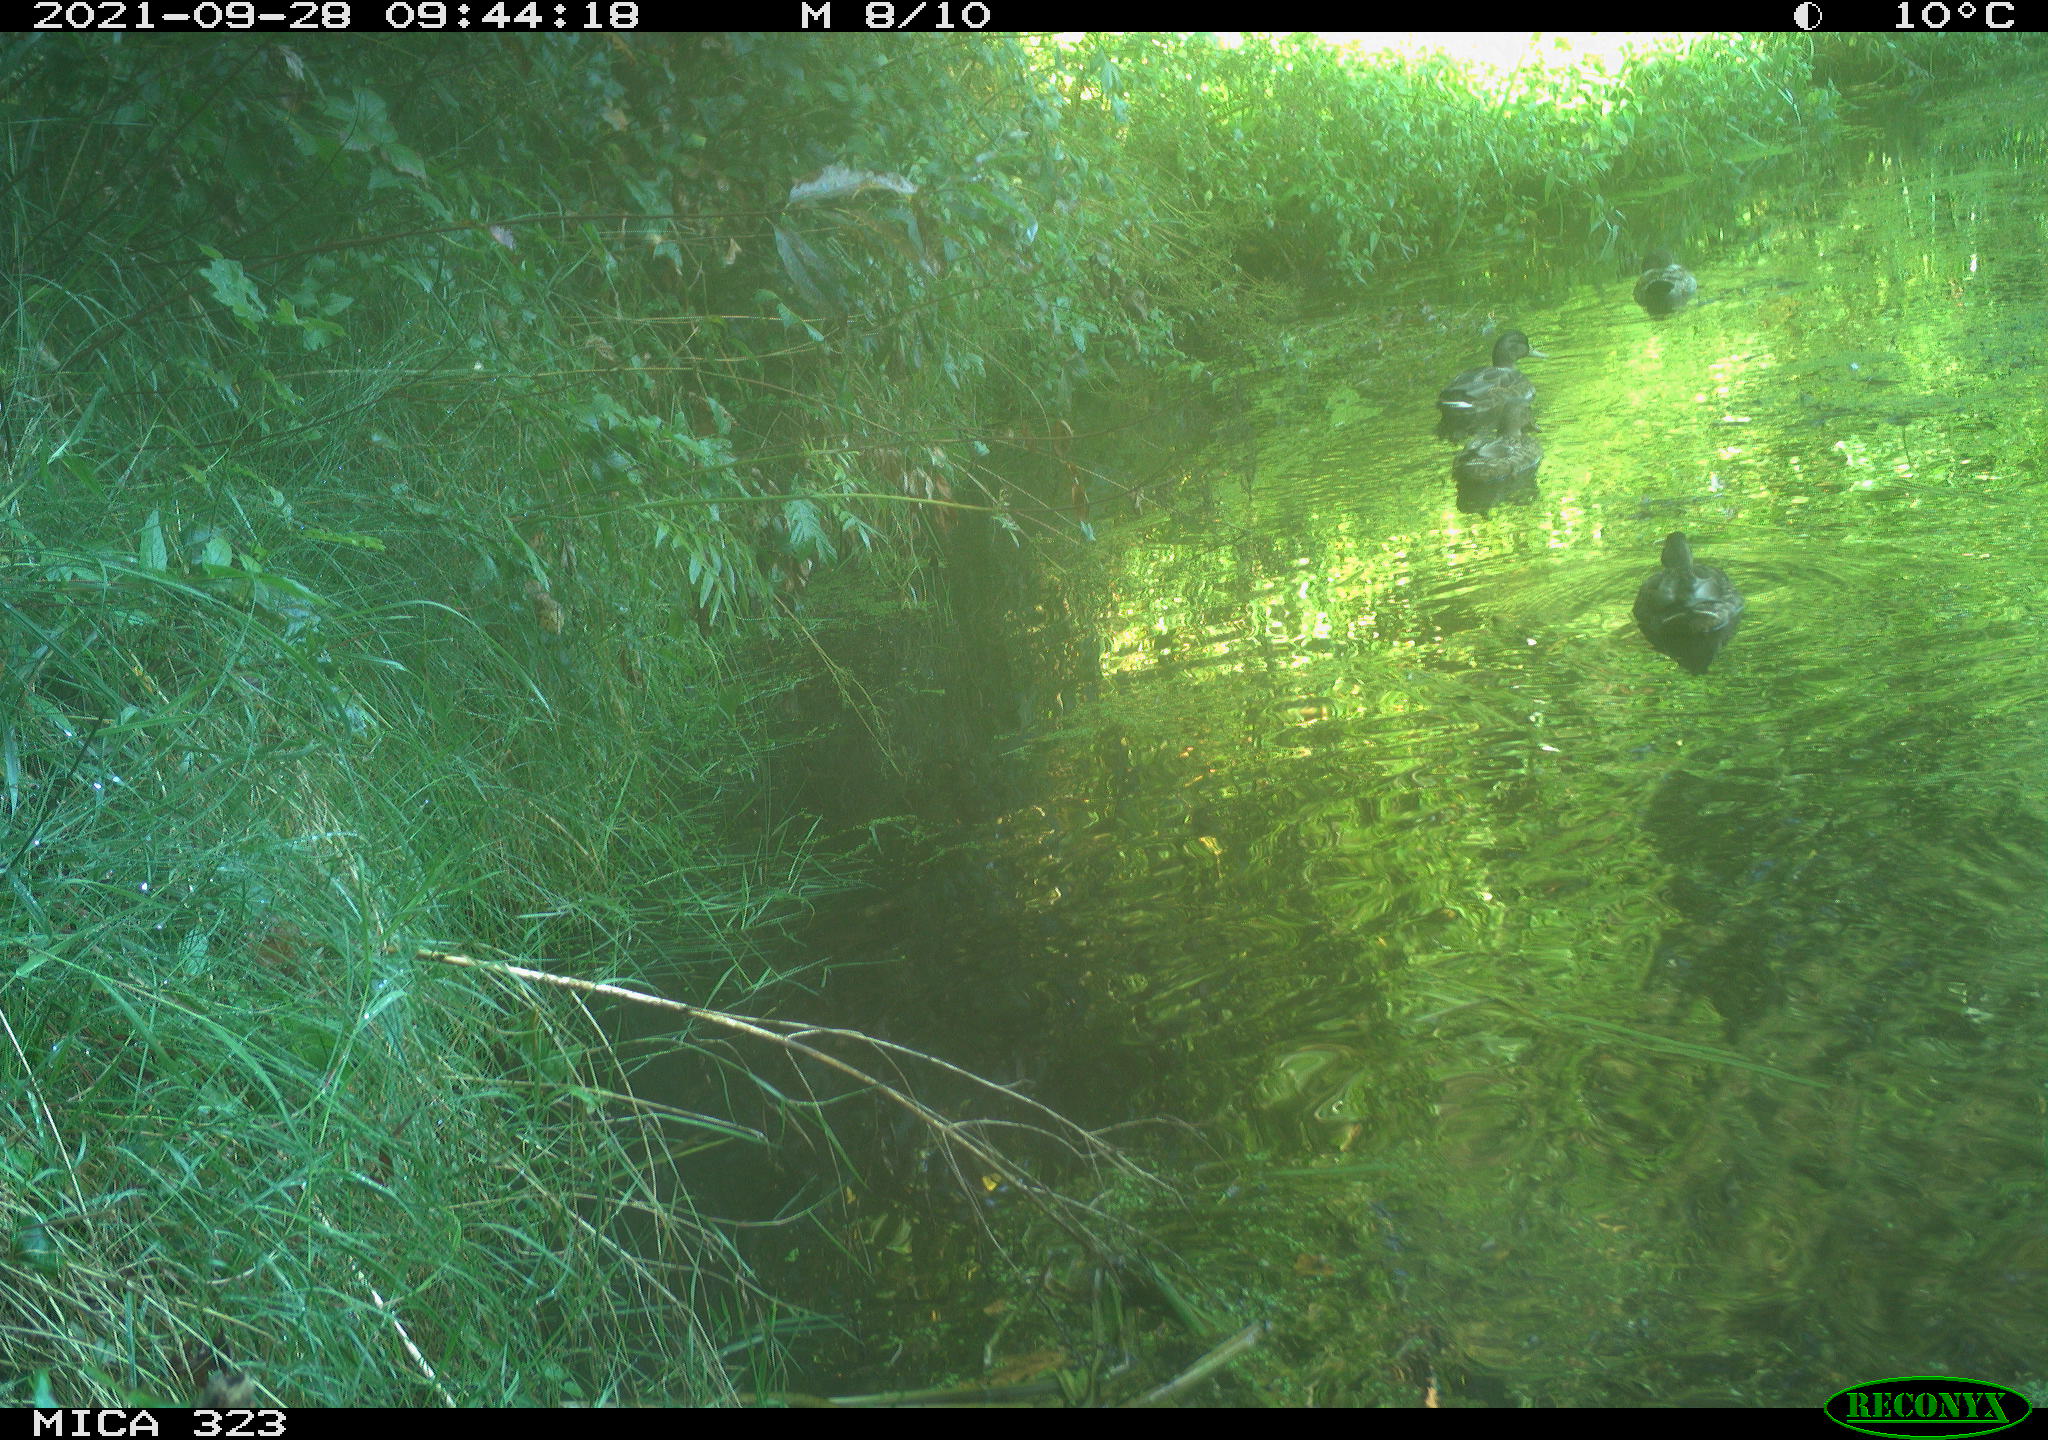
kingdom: Animalia
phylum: Chordata
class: Aves
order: Anseriformes
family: Anatidae
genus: Anas
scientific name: Anas platyrhynchos
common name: Mallard
